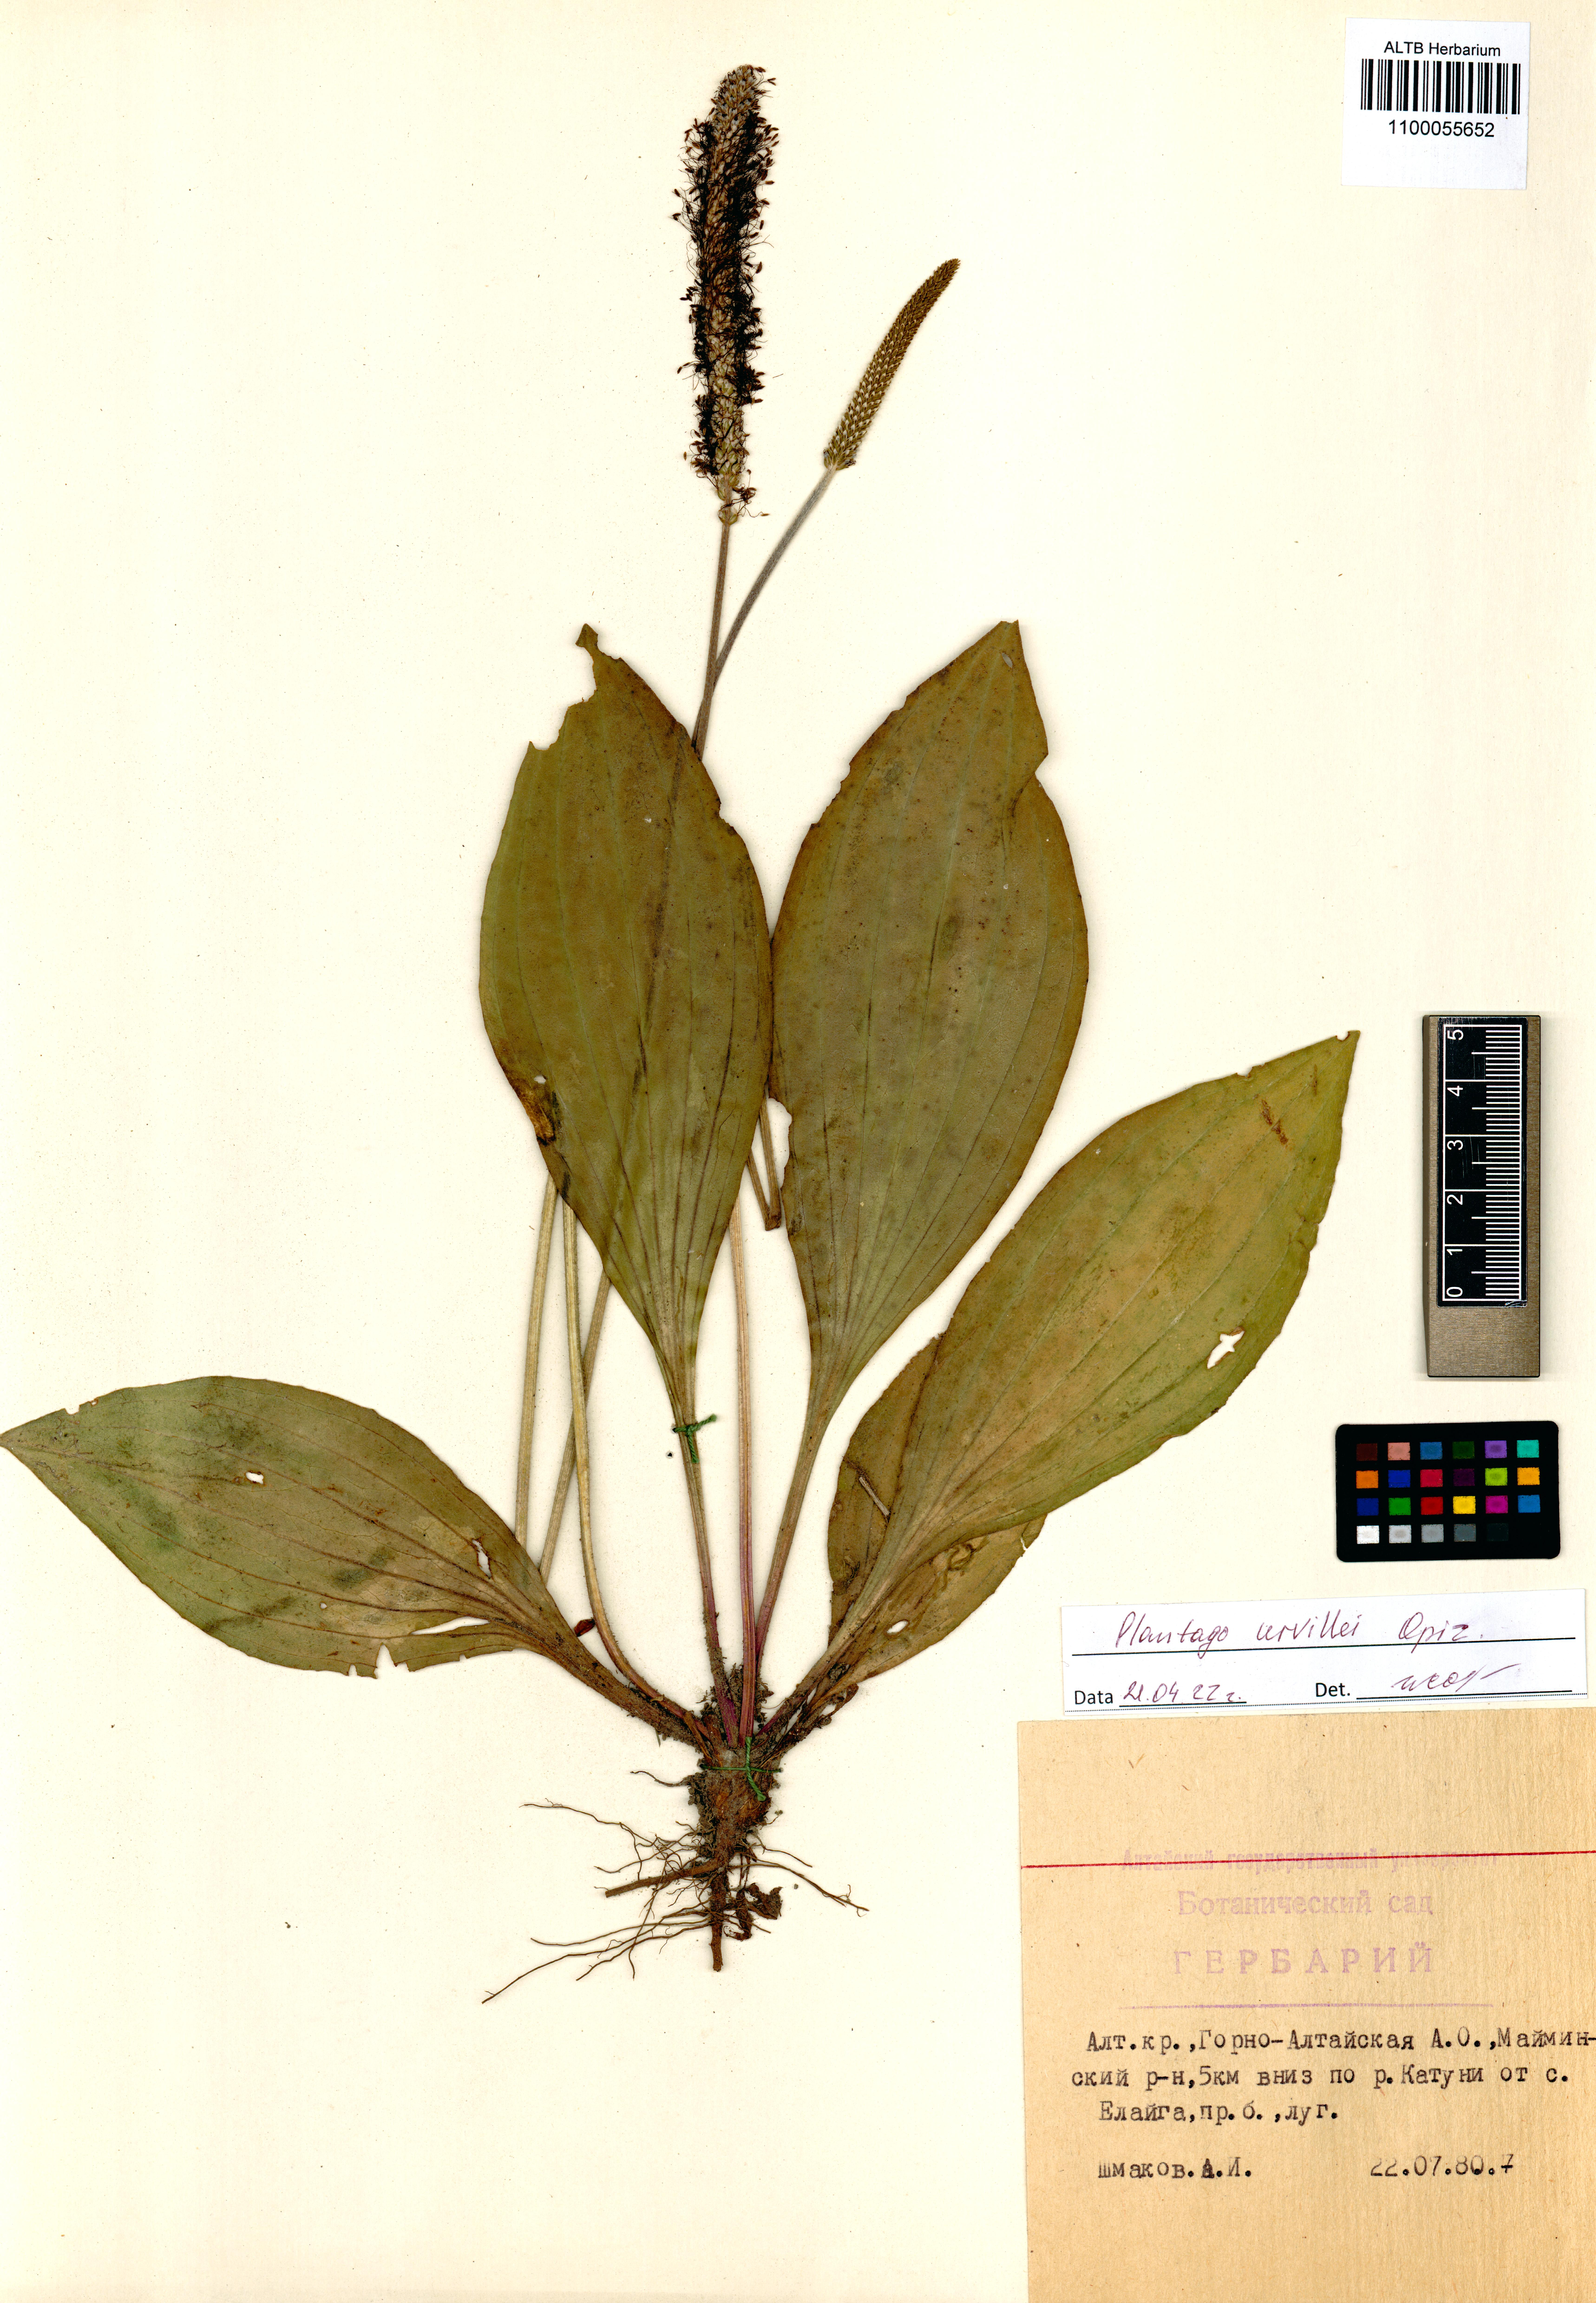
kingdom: Plantae
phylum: Tracheophyta
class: Magnoliopsida
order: Lamiales
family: Plantaginaceae
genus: Plantago
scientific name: Plantago urvillei
